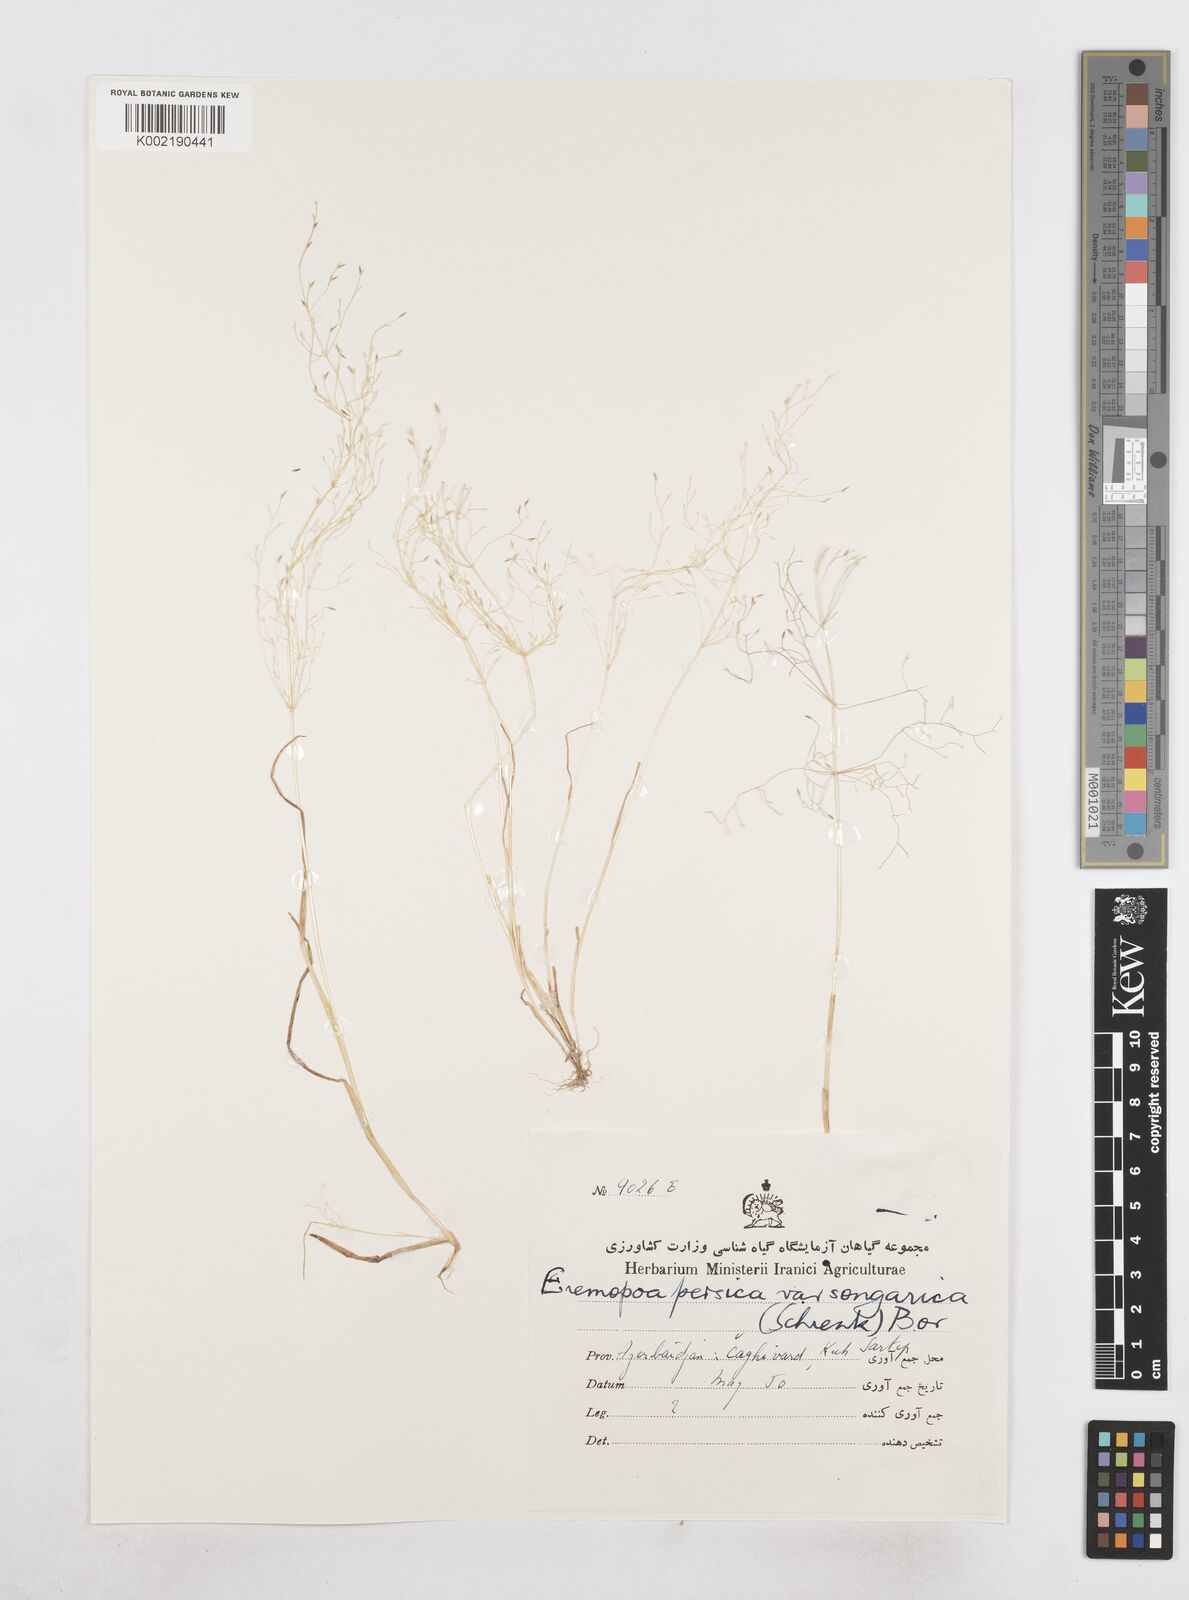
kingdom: Plantae
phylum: Tracheophyta
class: Liliopsida
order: Poales
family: Poaceae
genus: Poa
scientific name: Poa diaphora
